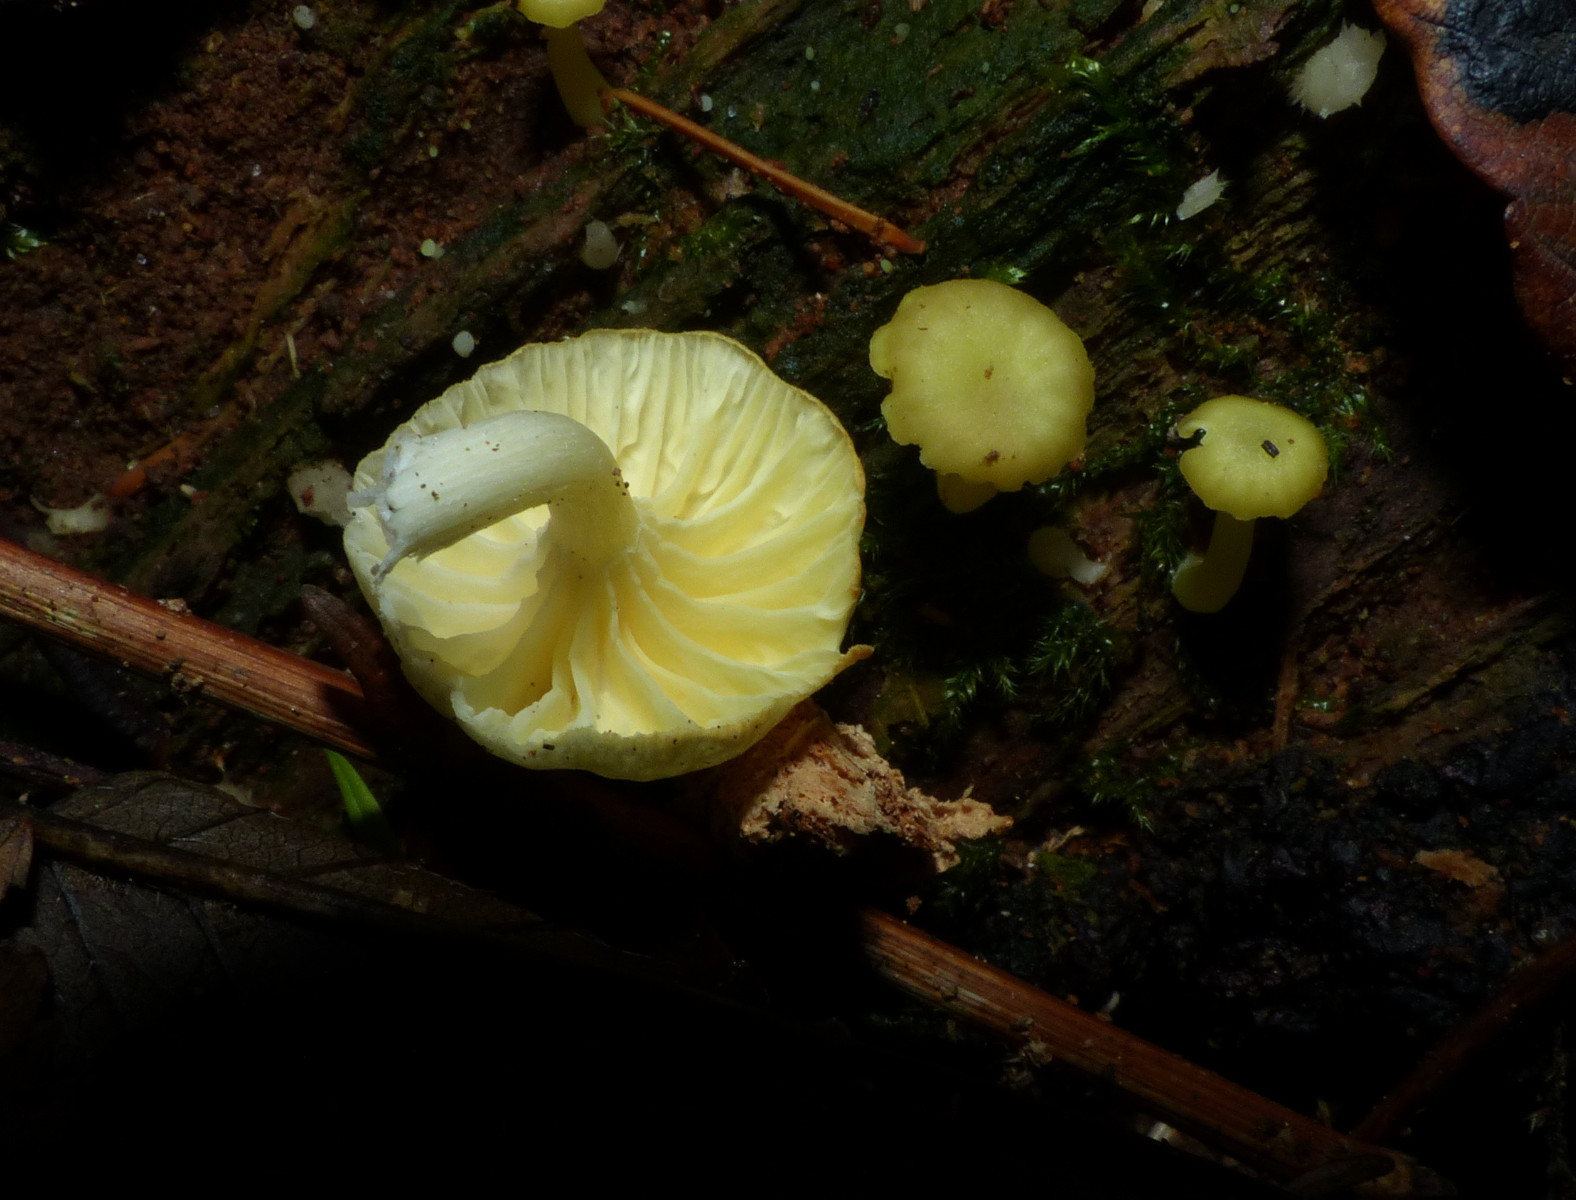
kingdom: Fungi
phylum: Basidiomycota
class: Agaricomycetes
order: Agaricales
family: Hygrophoraceae
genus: Chrysomphalina
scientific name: Chrysomphalina grossula
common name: stød-gyldenblad
